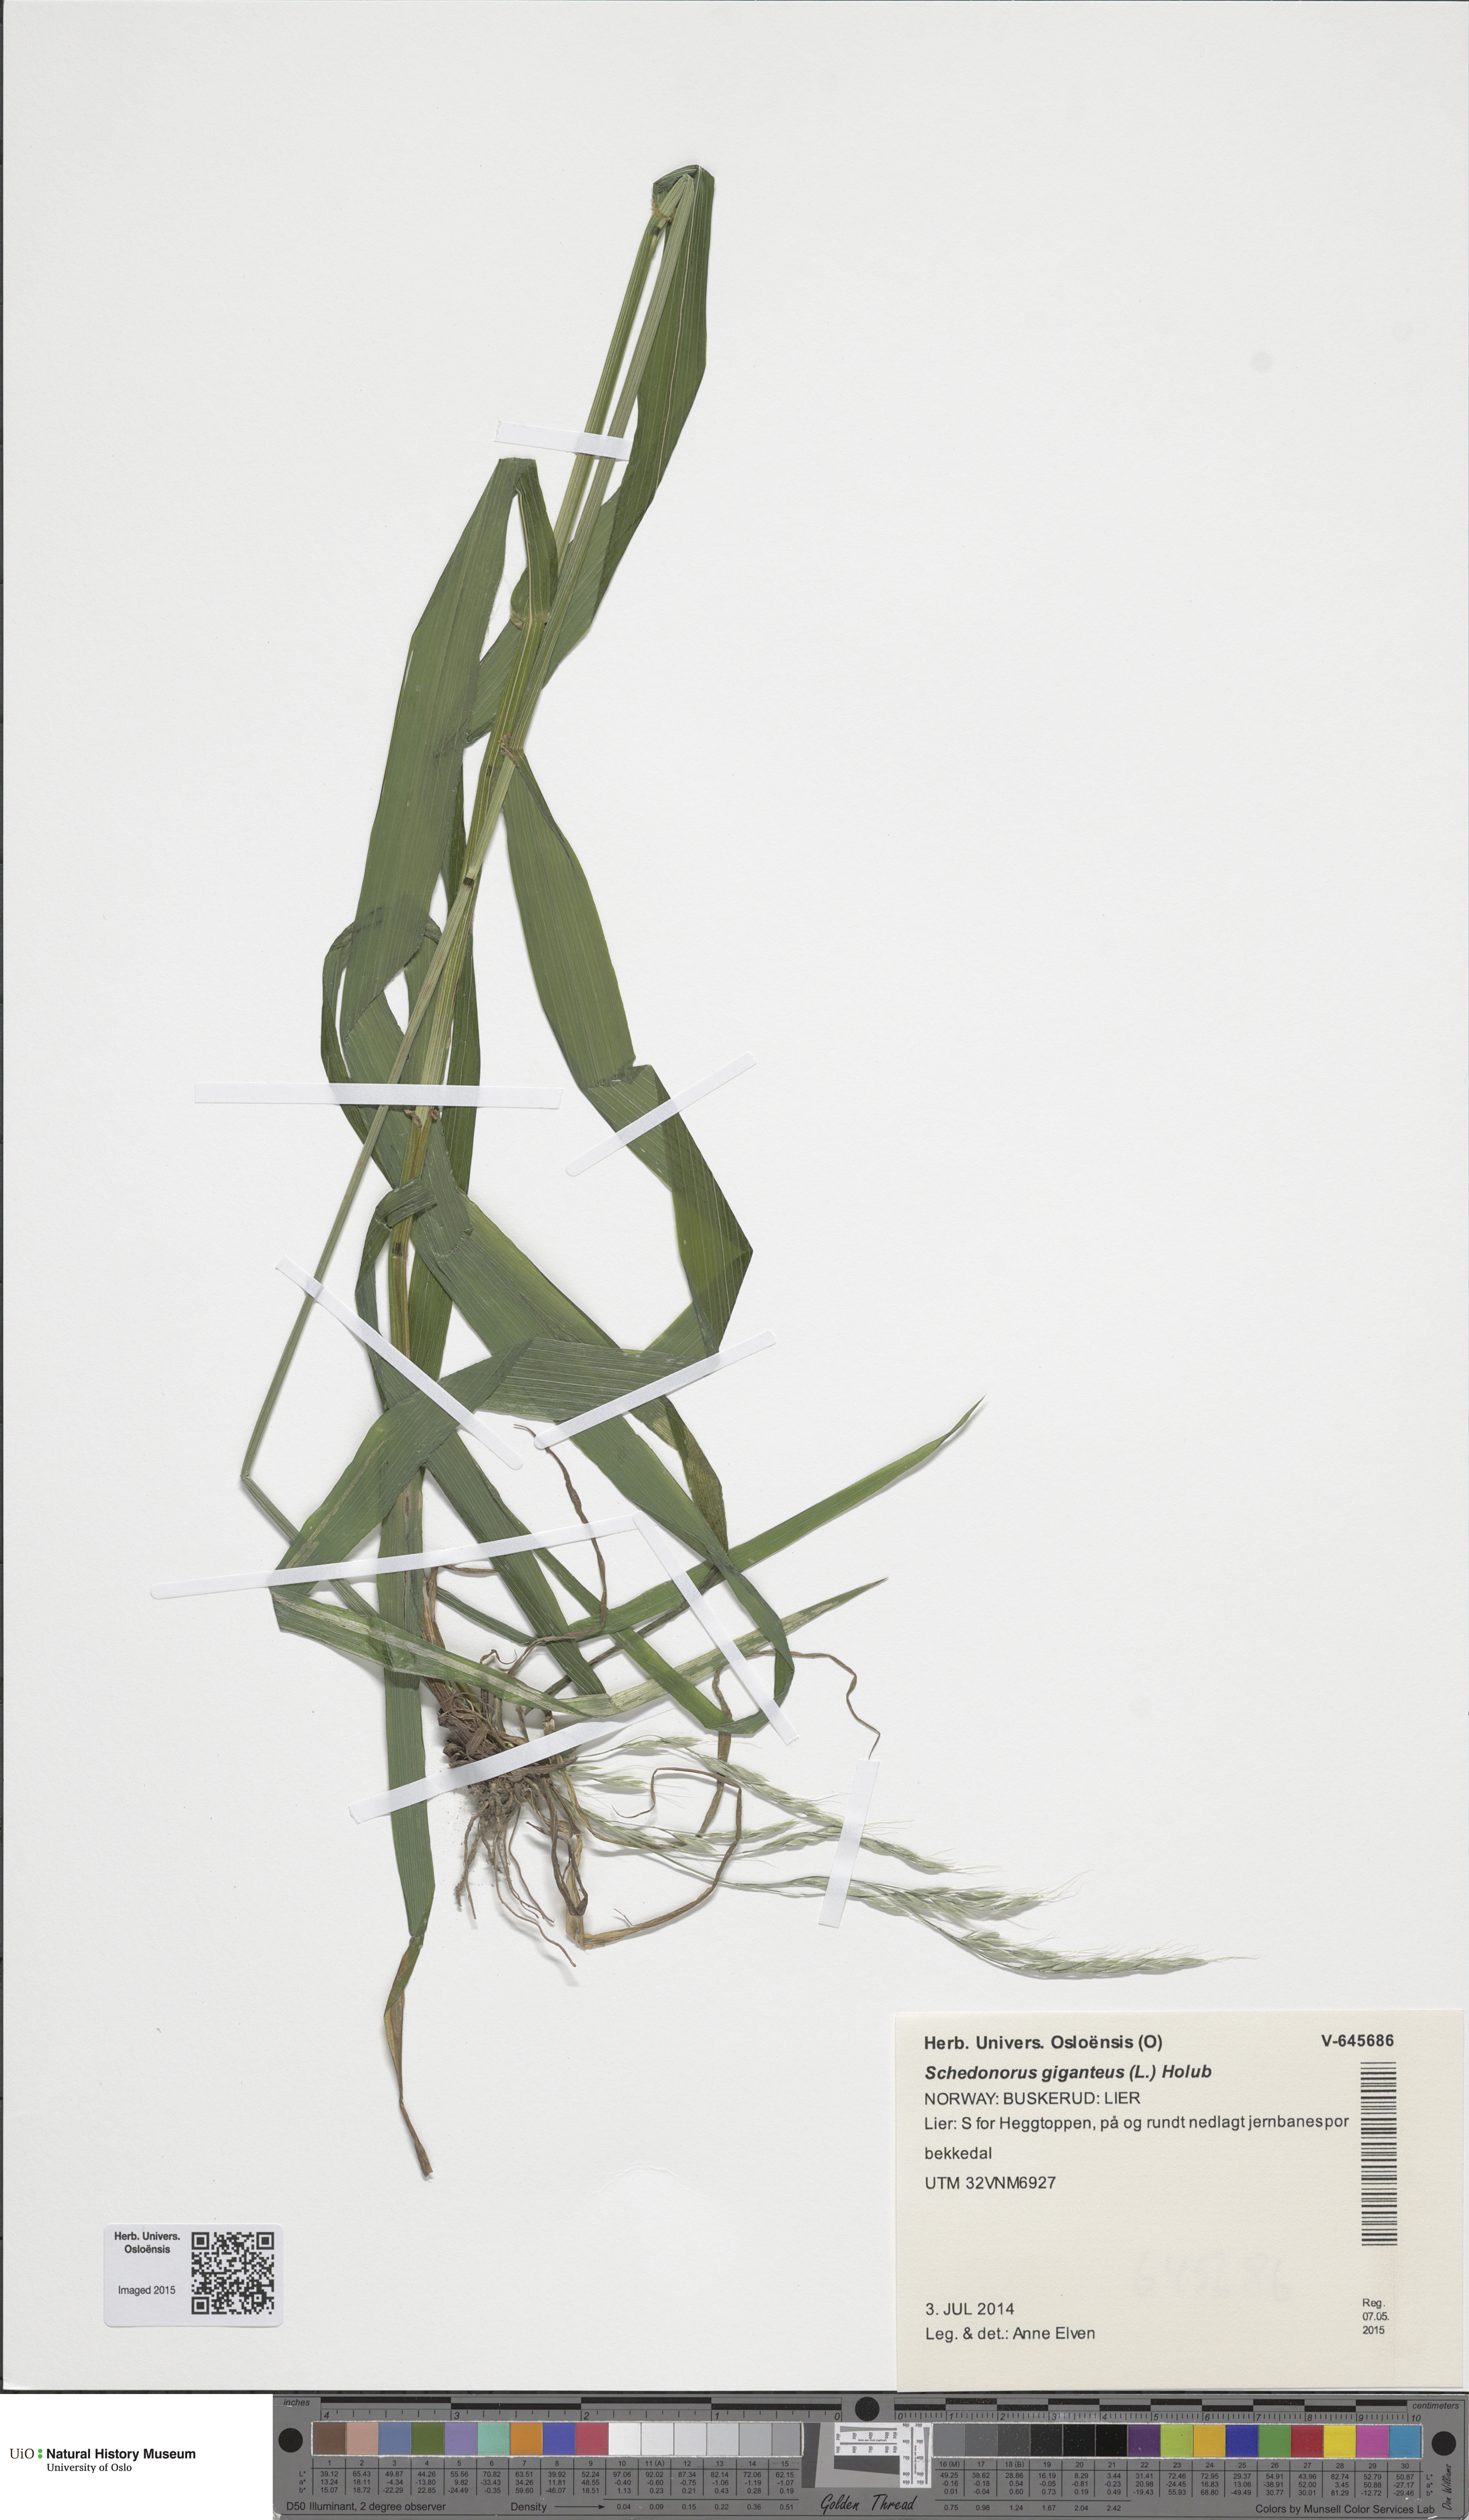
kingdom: Plantae
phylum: Tracheophyta
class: Liliopsida
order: Poales
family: Poaceae
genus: Lolium
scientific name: Lolium giganteum
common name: Giant fescue
